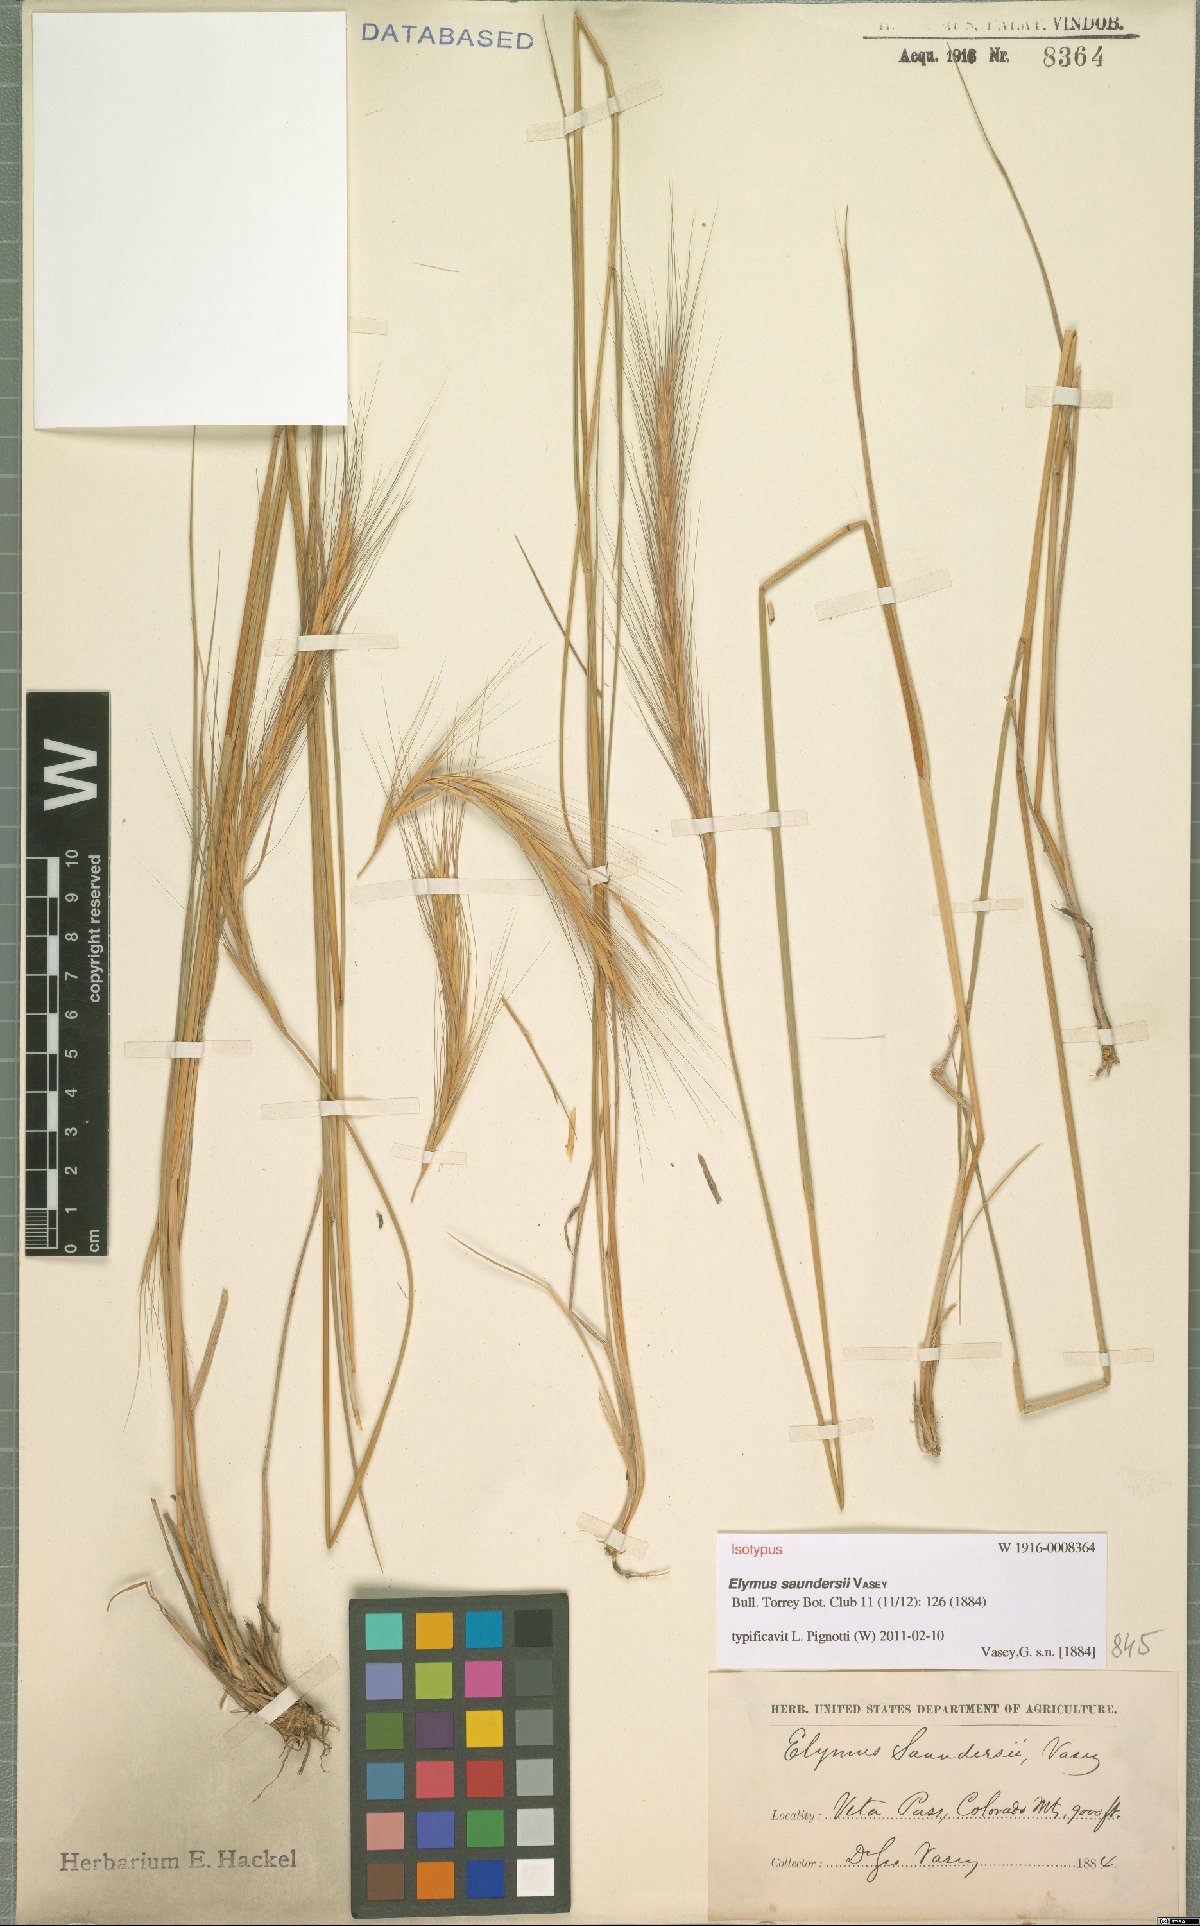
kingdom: Plantae
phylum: Tracheophyta
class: Liliopsida
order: Poales
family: Poaceae
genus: Elymus
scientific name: Elymus saundersii
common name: Saunder's wildrye
